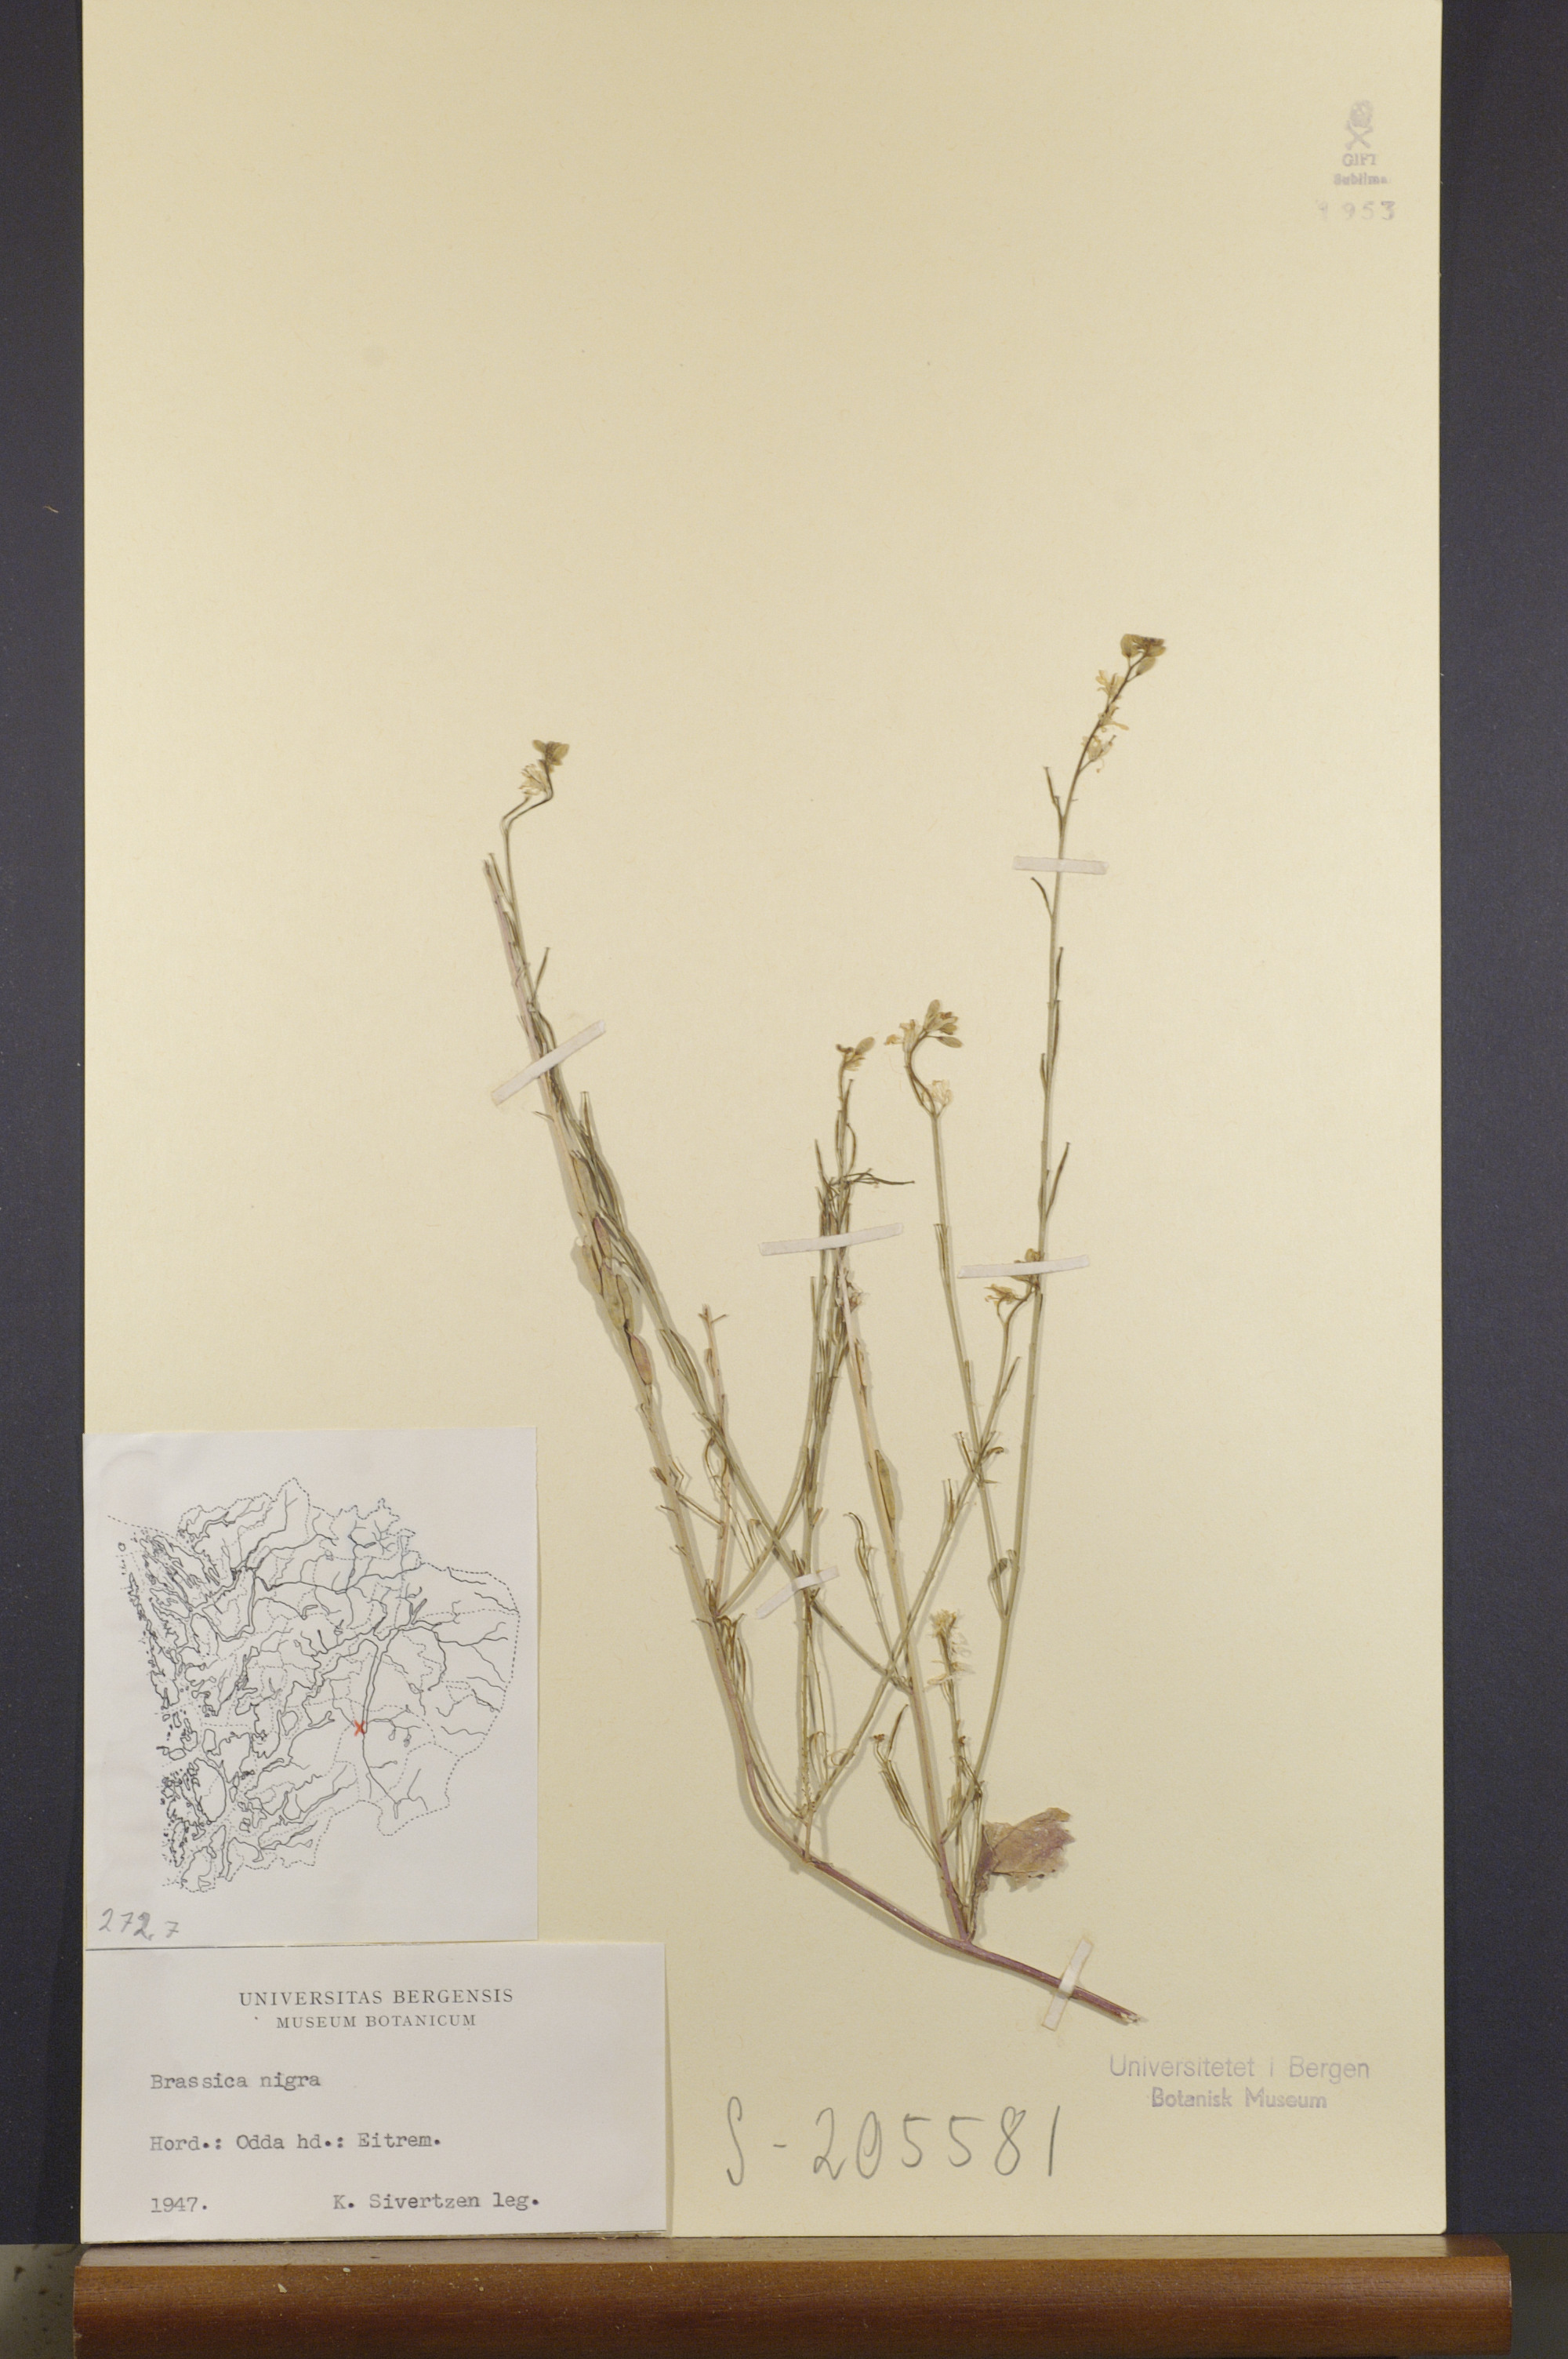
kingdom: Plantae
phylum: Tracheophyta
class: Magnoliopsida
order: Brassicales
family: Brassicaceae
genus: Brassica
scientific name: Brassica nigra
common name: Black mustard
